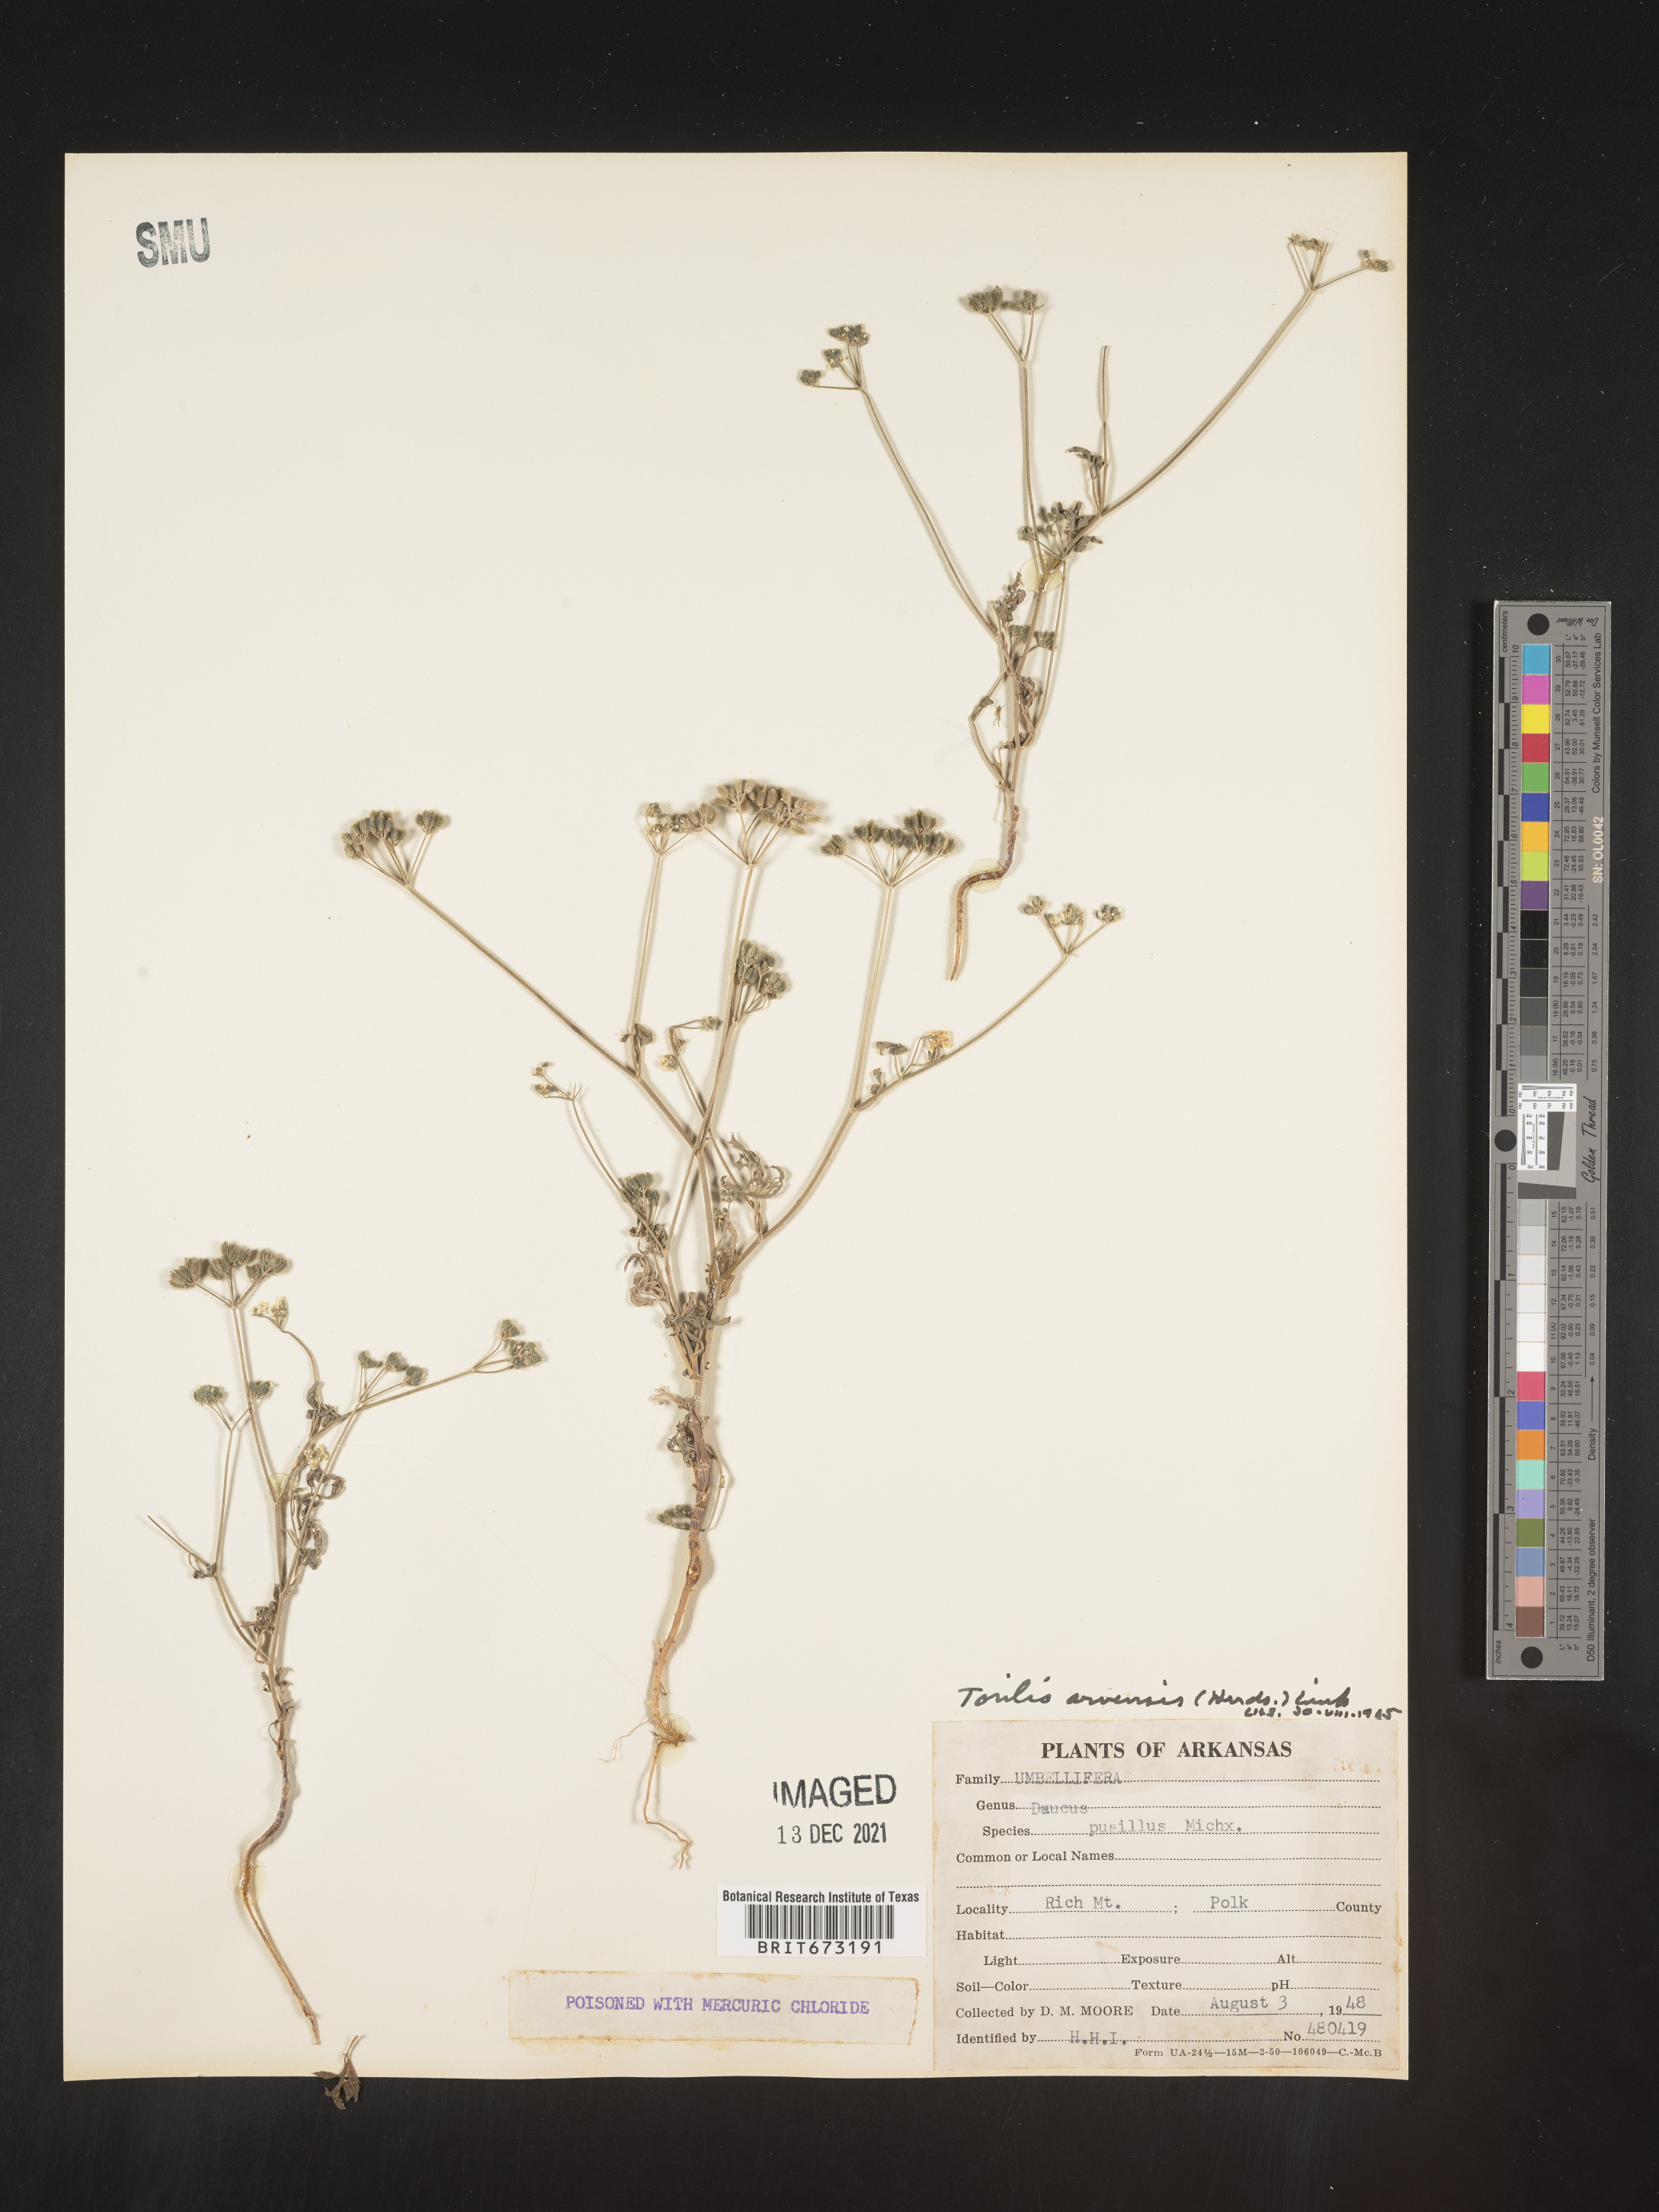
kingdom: Plantae
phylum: Tracheophyta
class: Magnoliopsida
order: Apiales
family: Apiaceae
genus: Torilis
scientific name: Torilis arvensis
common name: Spreading hedge-parsley
